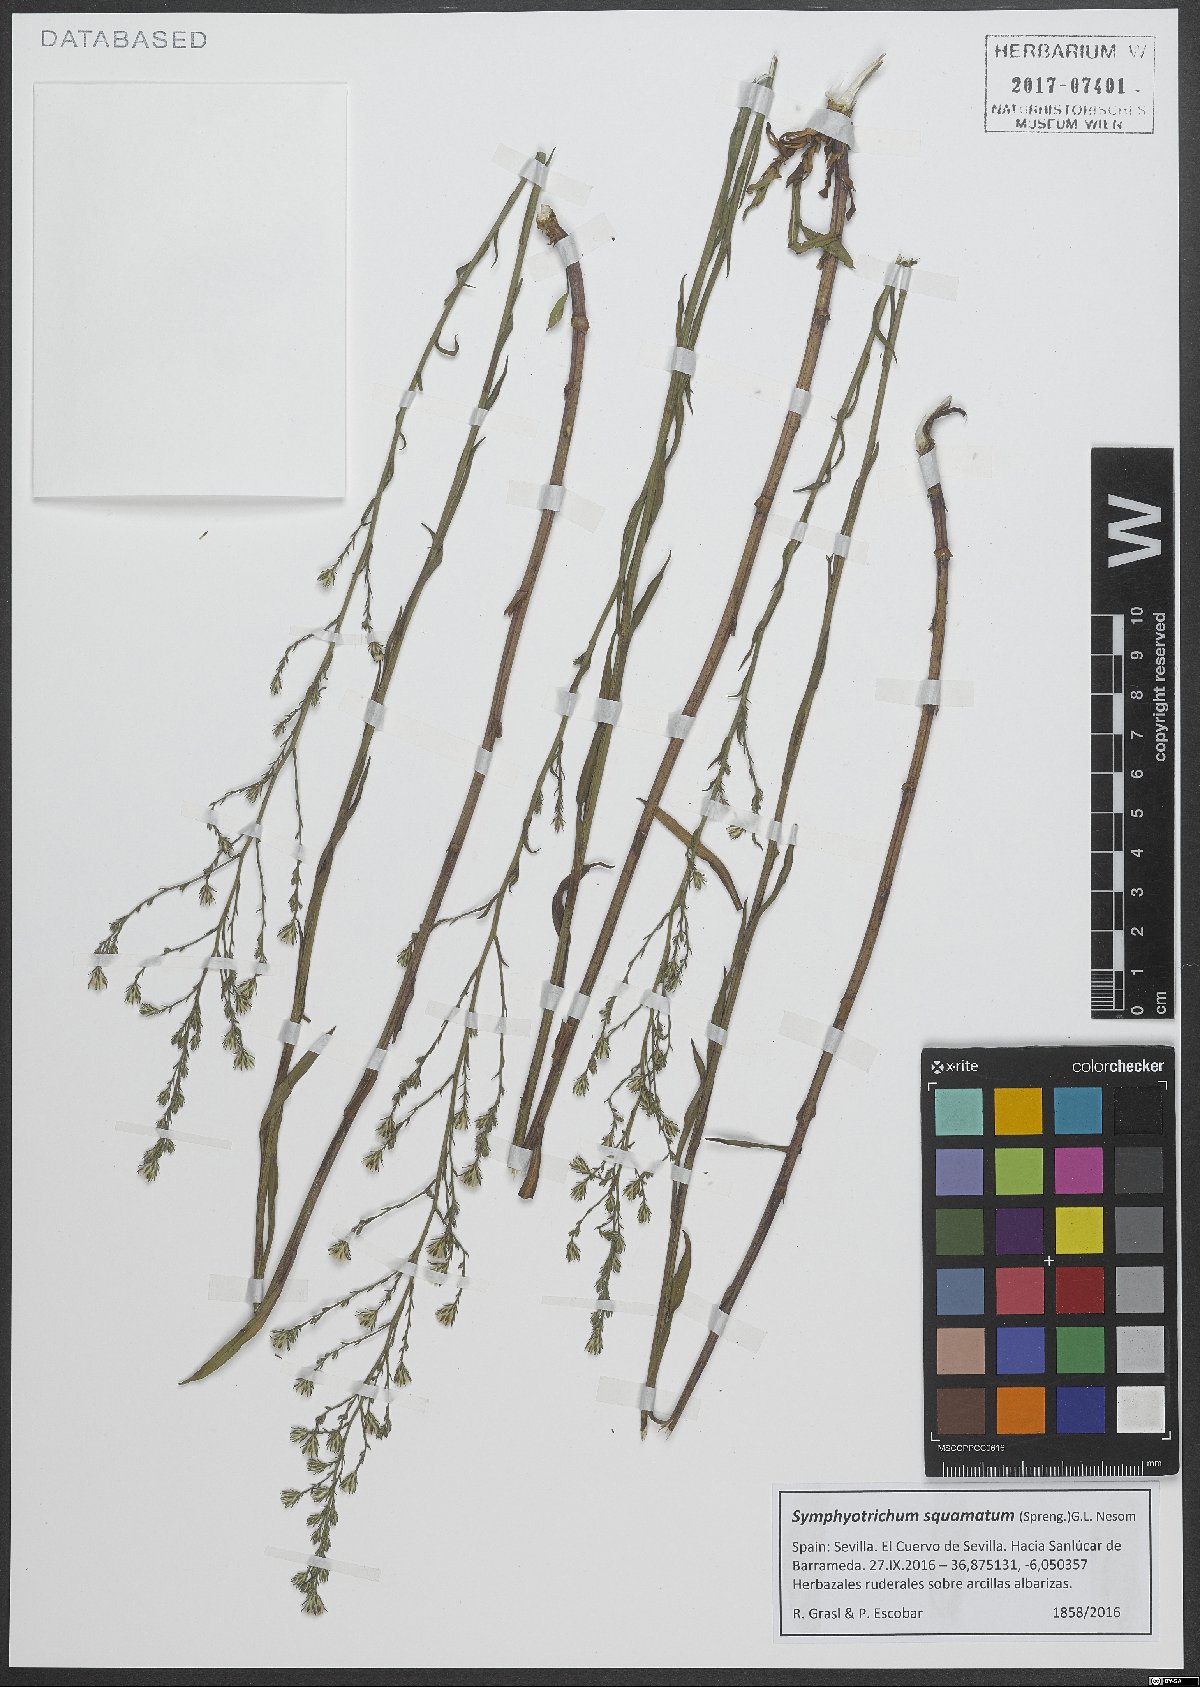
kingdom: Plantae
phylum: Tracheophyta
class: Magnoliopsida
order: Asterales
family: Asteraceae
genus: Symphyotrichum
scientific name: Symphyotrichum squamatum
